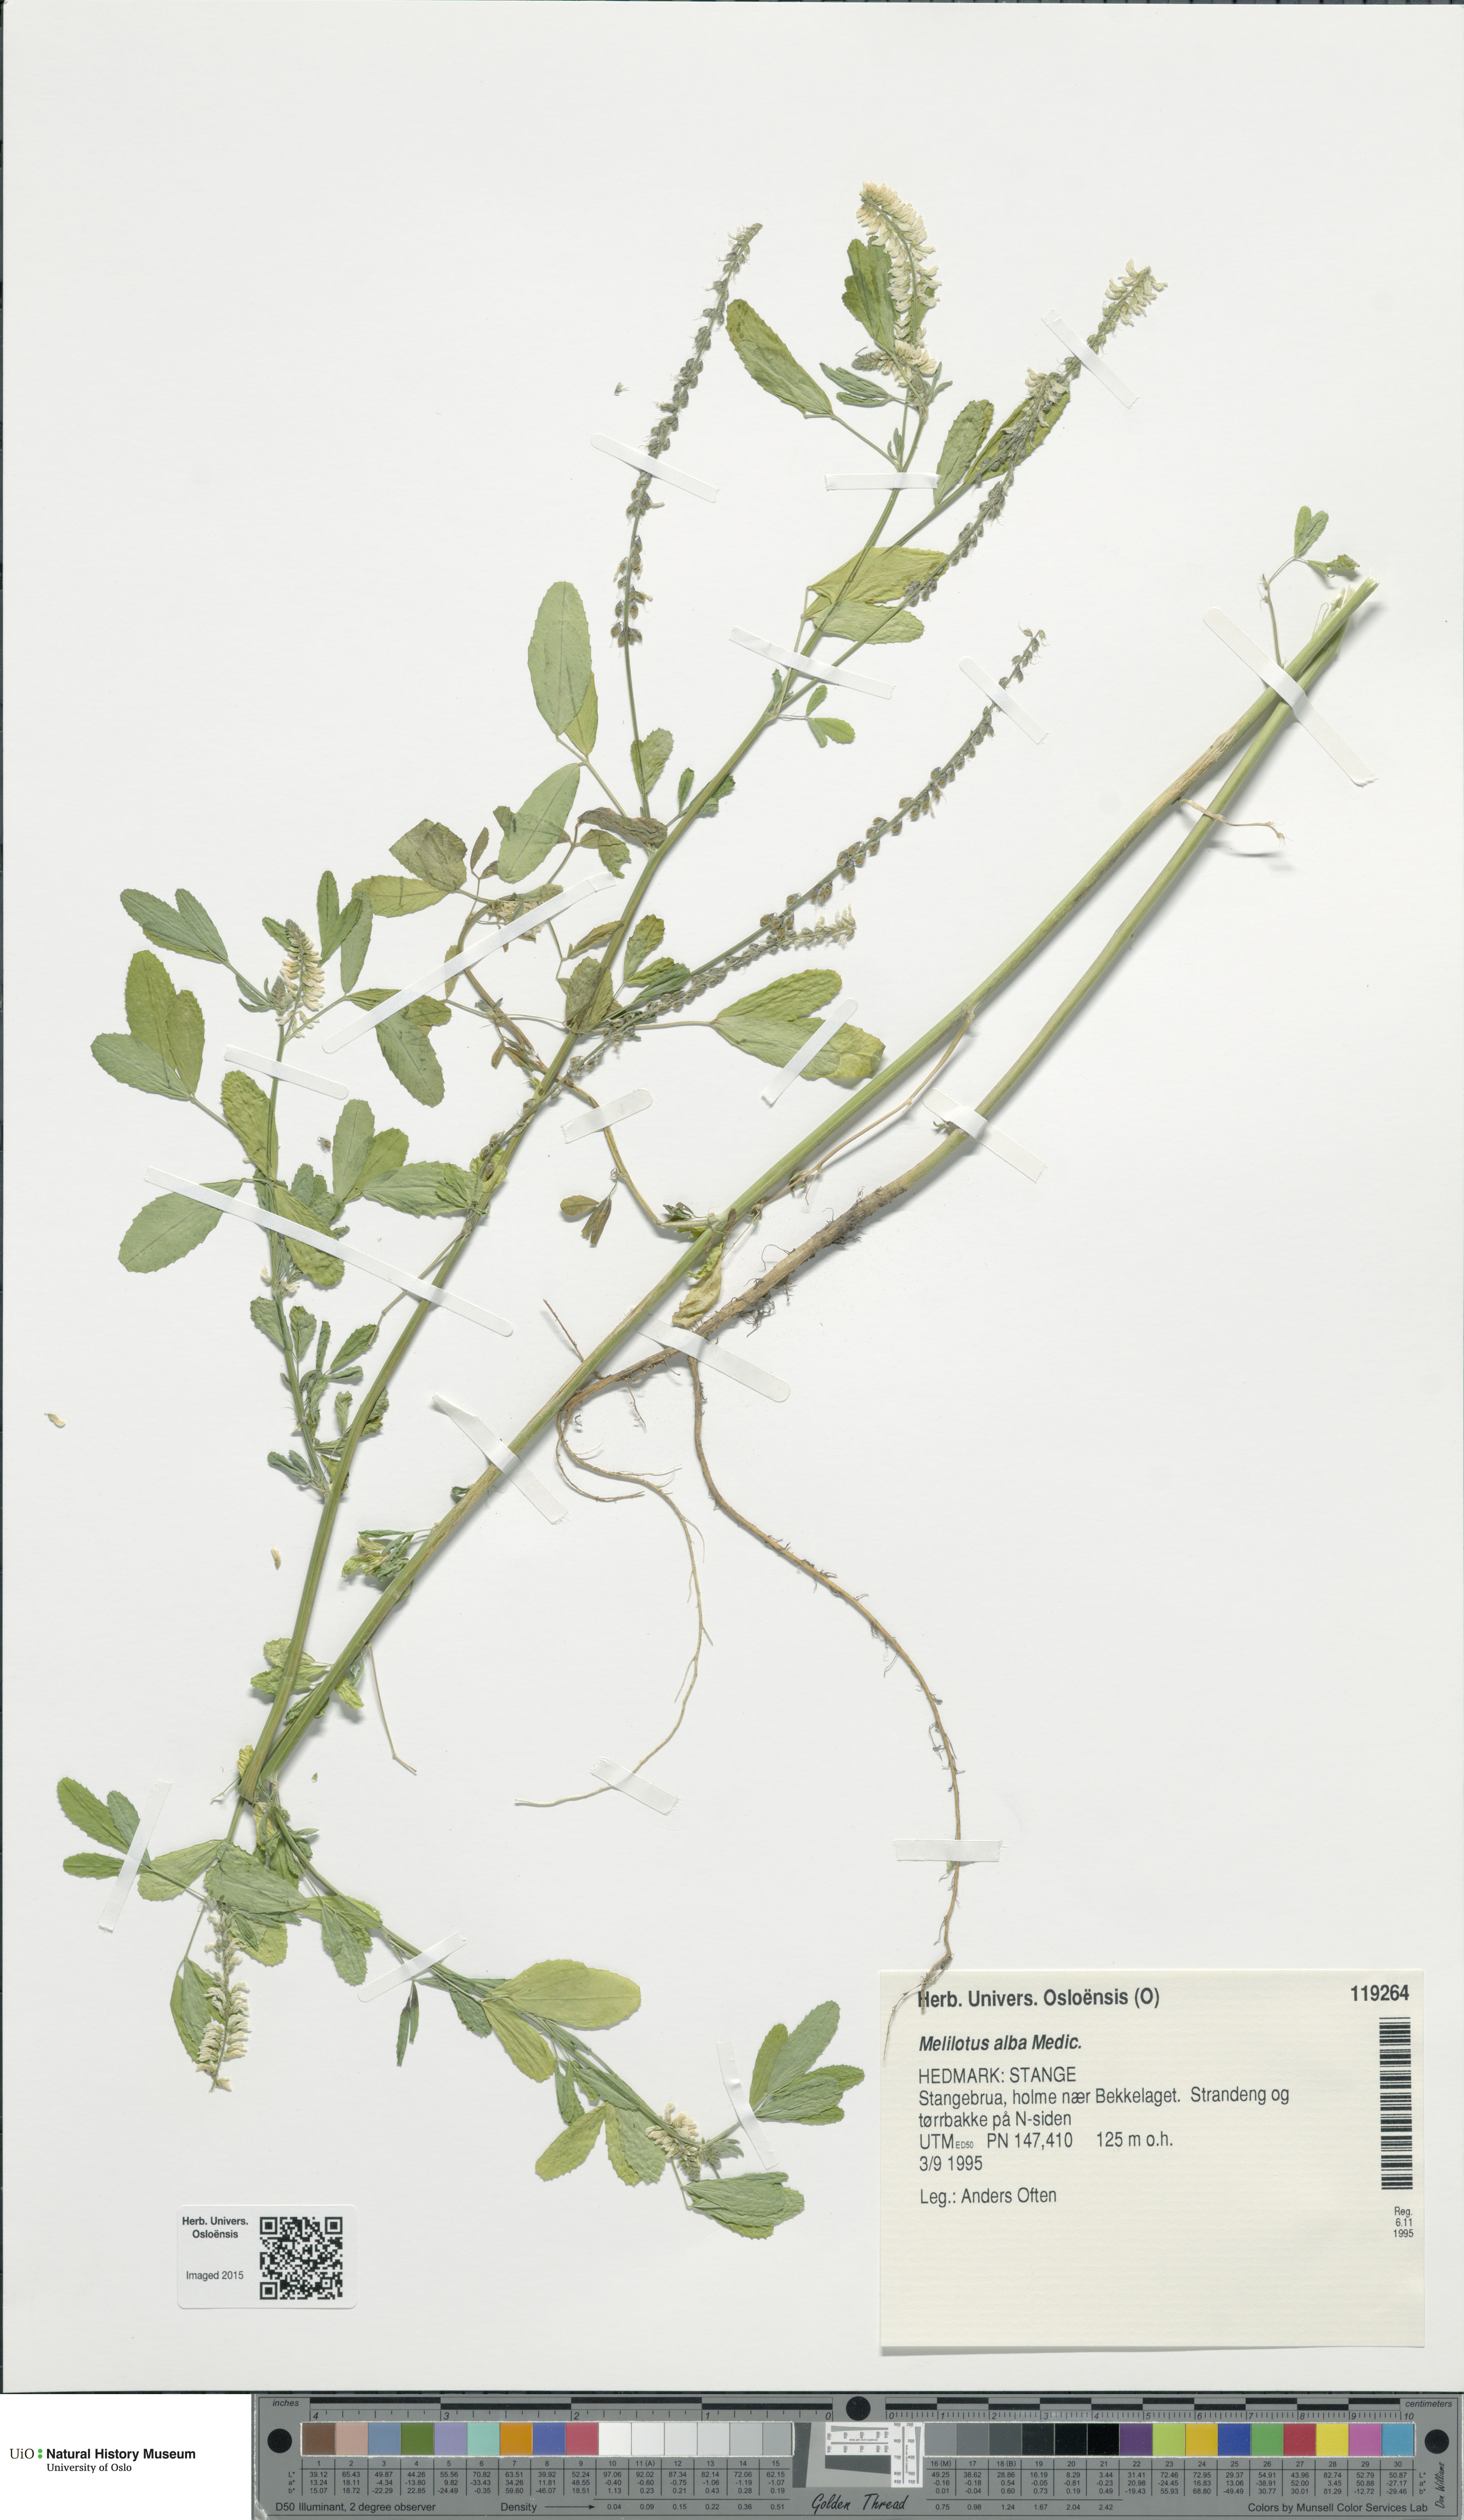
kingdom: Plantae
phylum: Tracheophyta
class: Magnoliopsida
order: Fabales
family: Fabaceae
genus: Melilotus
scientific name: Melilotus albus
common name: White melilot
